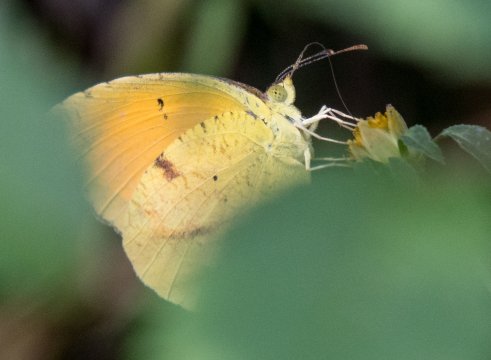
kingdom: Animalia
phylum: Arthropoda
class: Insecta
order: Lepidoptera
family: Pieridae
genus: Abaeis
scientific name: Abaeis nicippe
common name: Sleepy Orange
